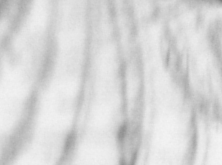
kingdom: Animalia
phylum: Chordata
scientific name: Chordata
